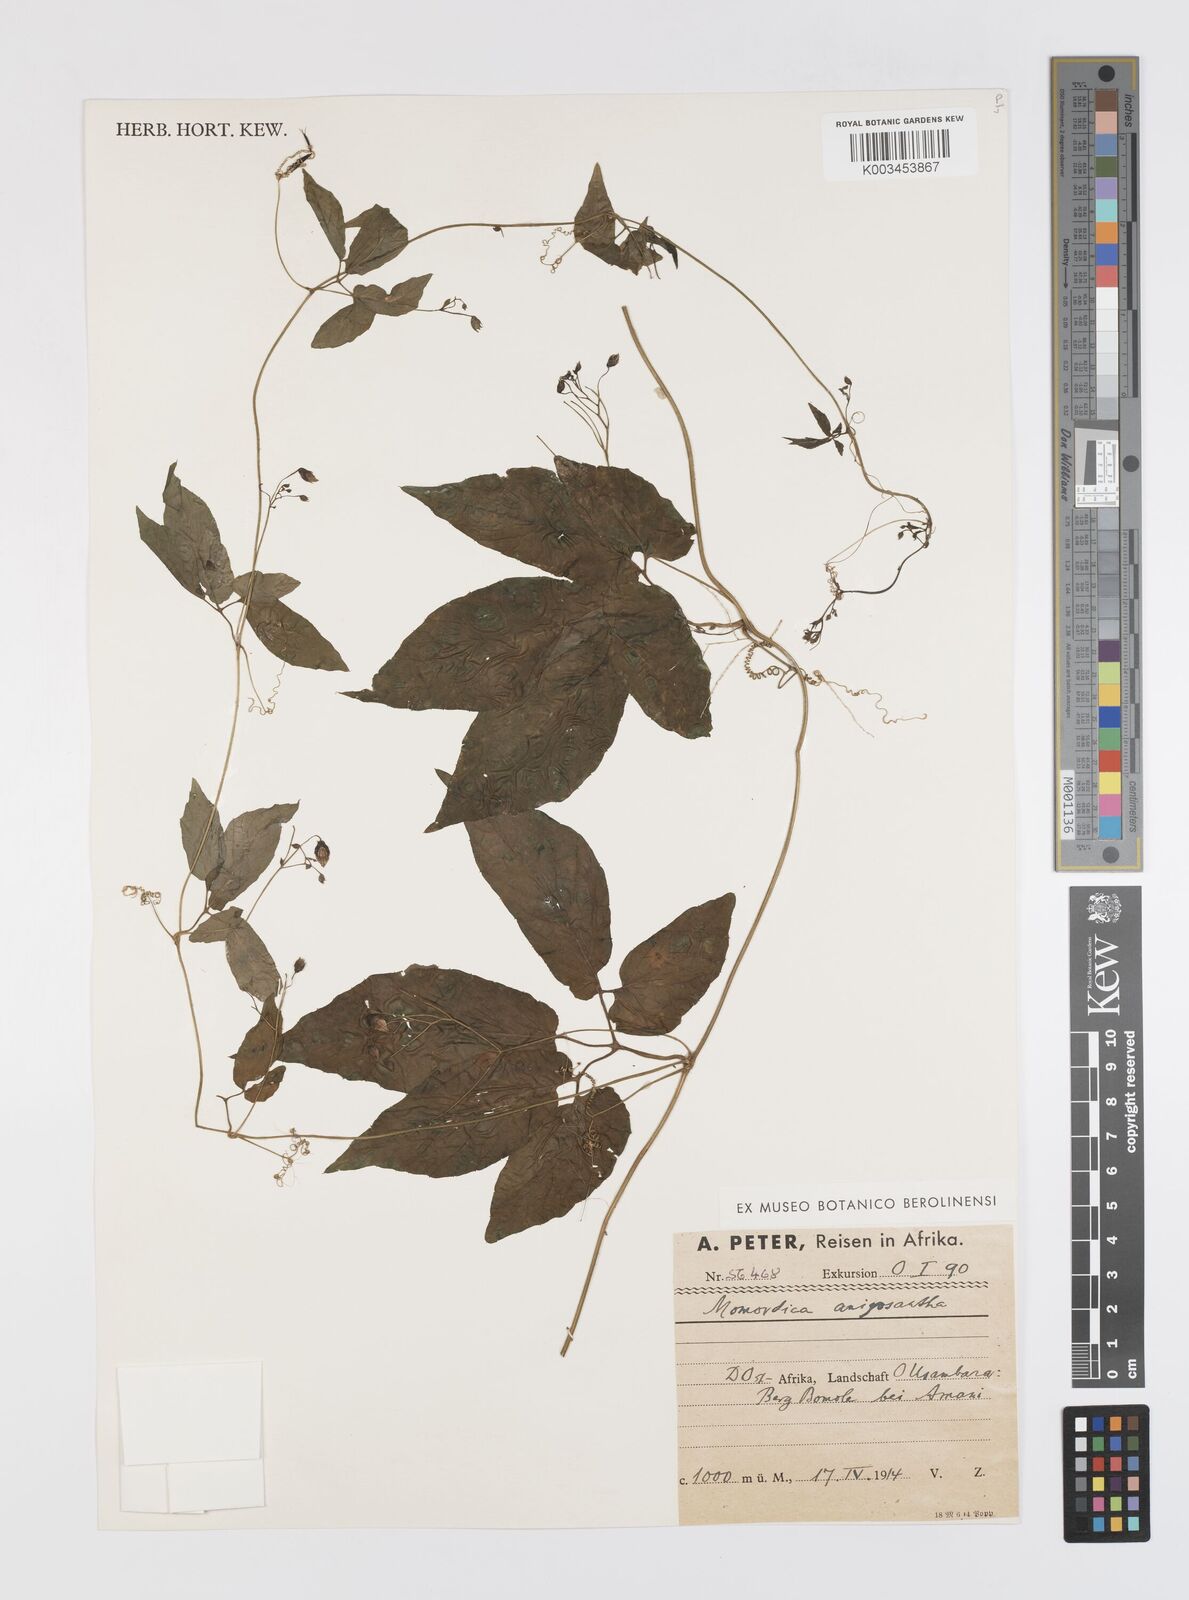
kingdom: Plantae
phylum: Tracheophyta
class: Magnoliopsida
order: Cucurbitales
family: Cucurbitaceae
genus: Momordica
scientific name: Momordica anigosantha
